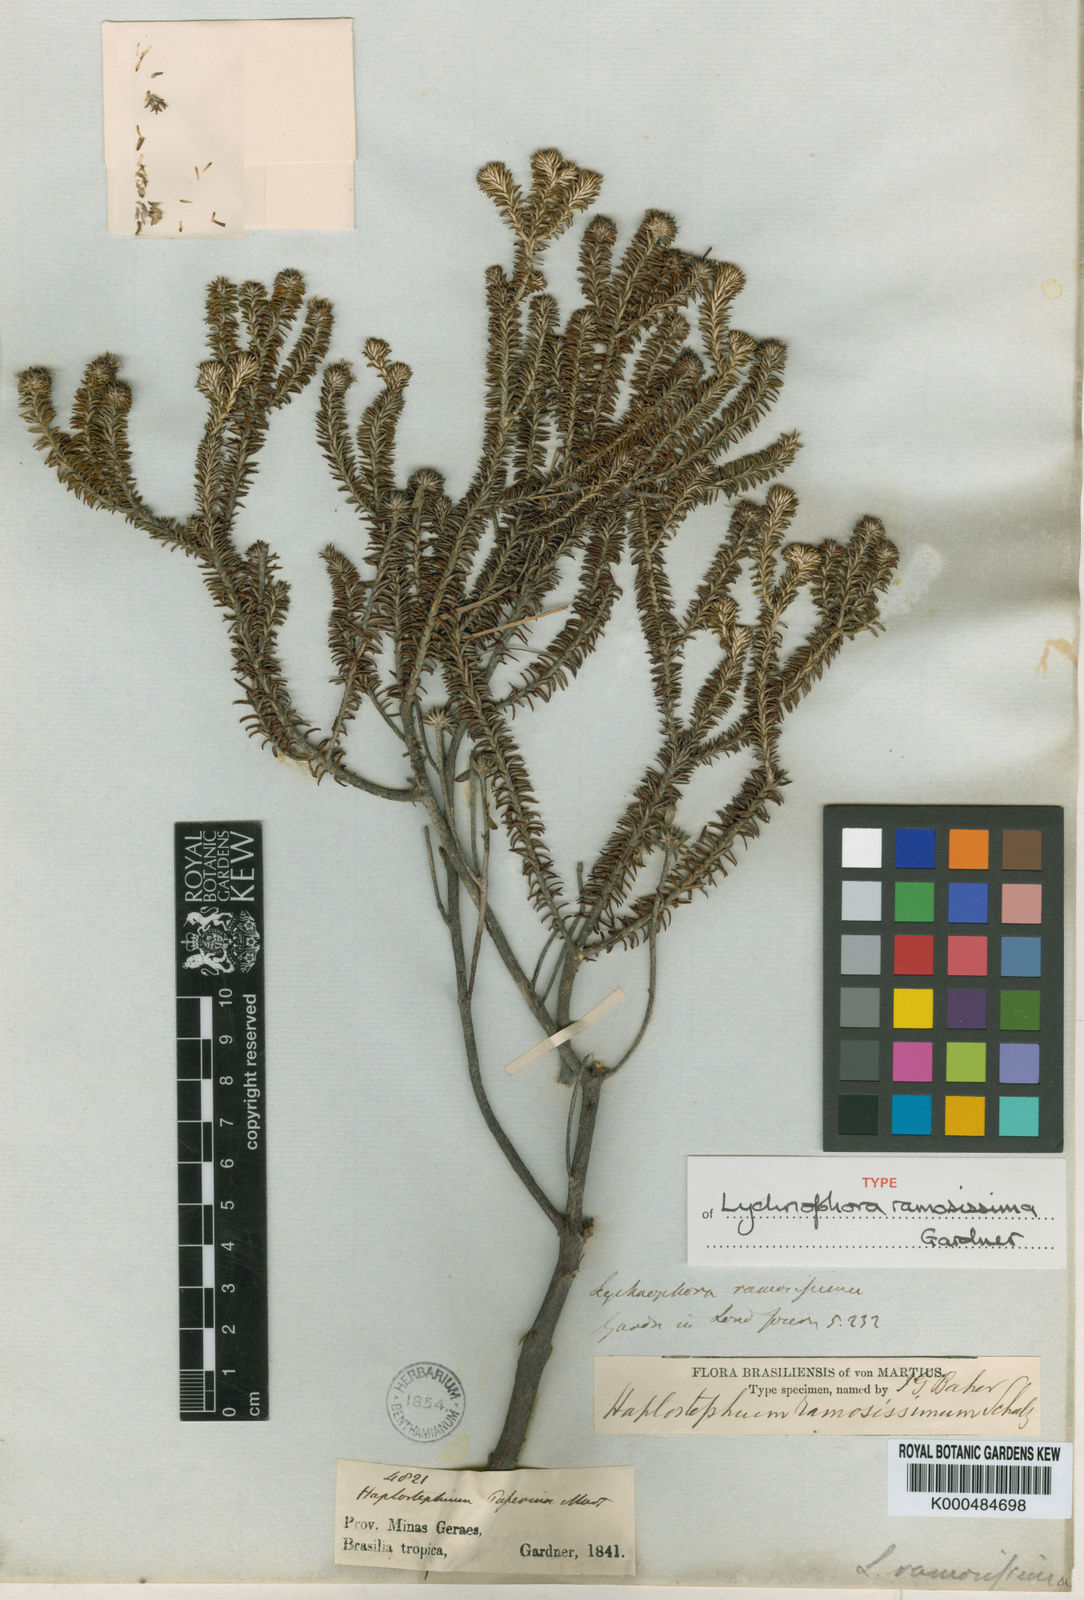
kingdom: Plantae
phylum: Tracheophyta
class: Magnoliopsida
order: Asterales
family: Asteraceae
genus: Lychnophora
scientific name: Lychnophora ramosissima
